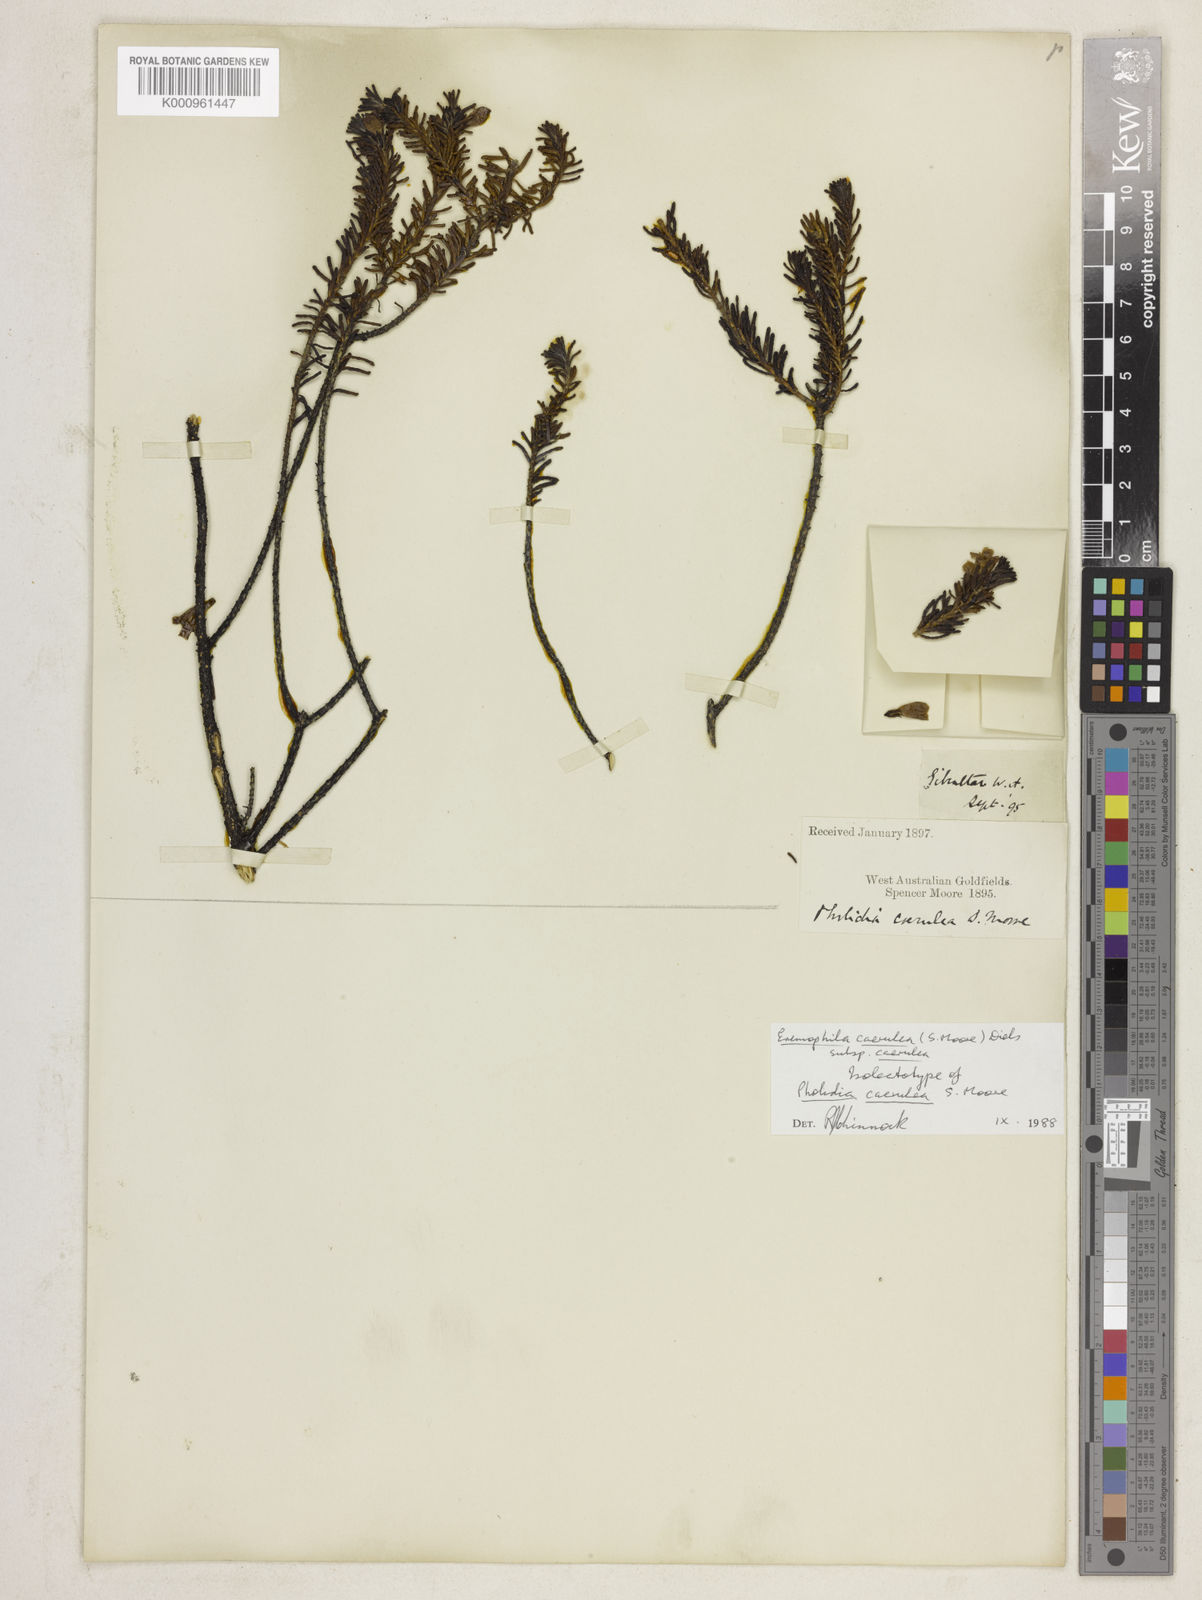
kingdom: Plantae
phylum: Tracheophyta
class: Magnoliopsida
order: Lamiales
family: Scrophulariaceae
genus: Eremophila
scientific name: Eremophila caerulea
